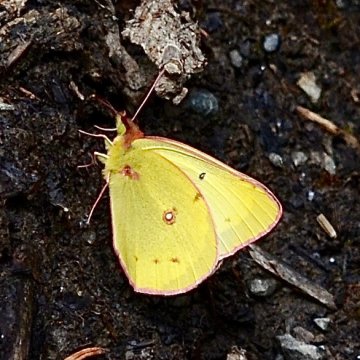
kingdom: Animalia
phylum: Arthropoda
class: Insecta
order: Lepidoptera
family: Pieridae
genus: Colias
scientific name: Colias philodice
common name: Clouded Sulphur
